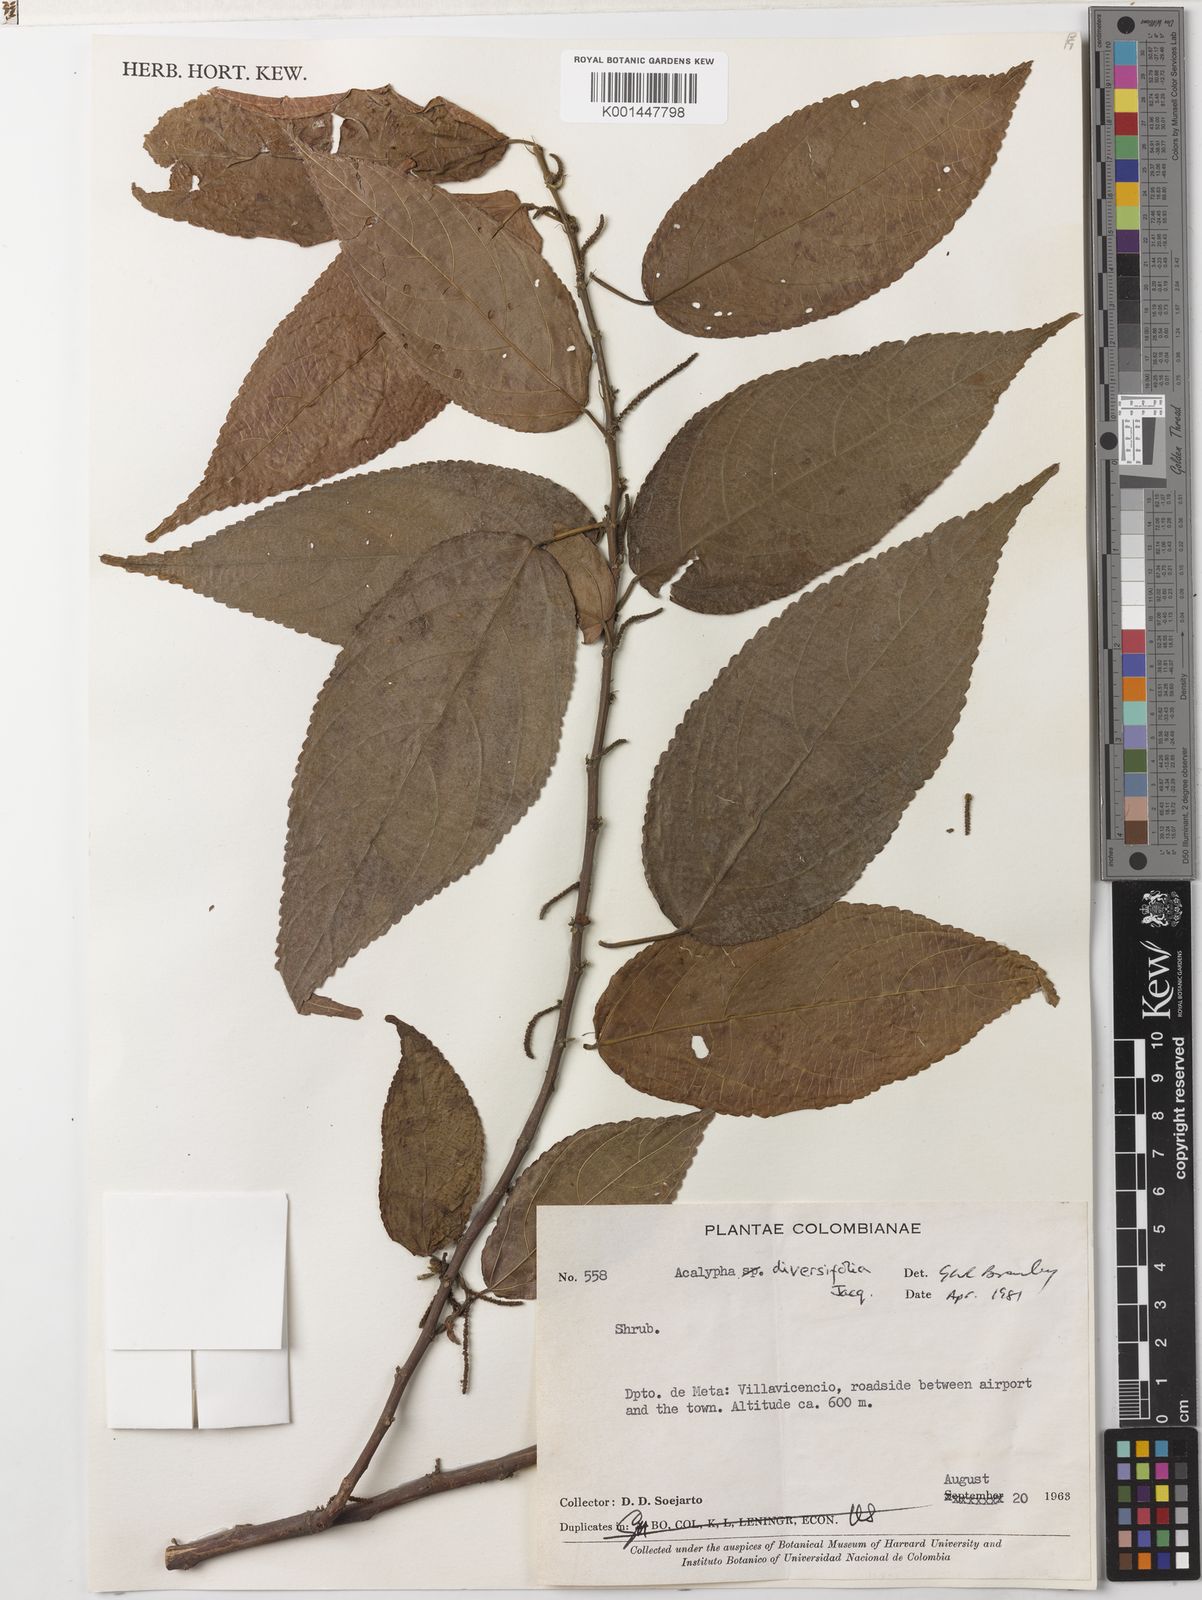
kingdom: Plantae
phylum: Tracheophyta
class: Magnoliopsida
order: Malpighiales
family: Euphorbiaceae
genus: Acalypha
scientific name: Acalypha diversifolia
